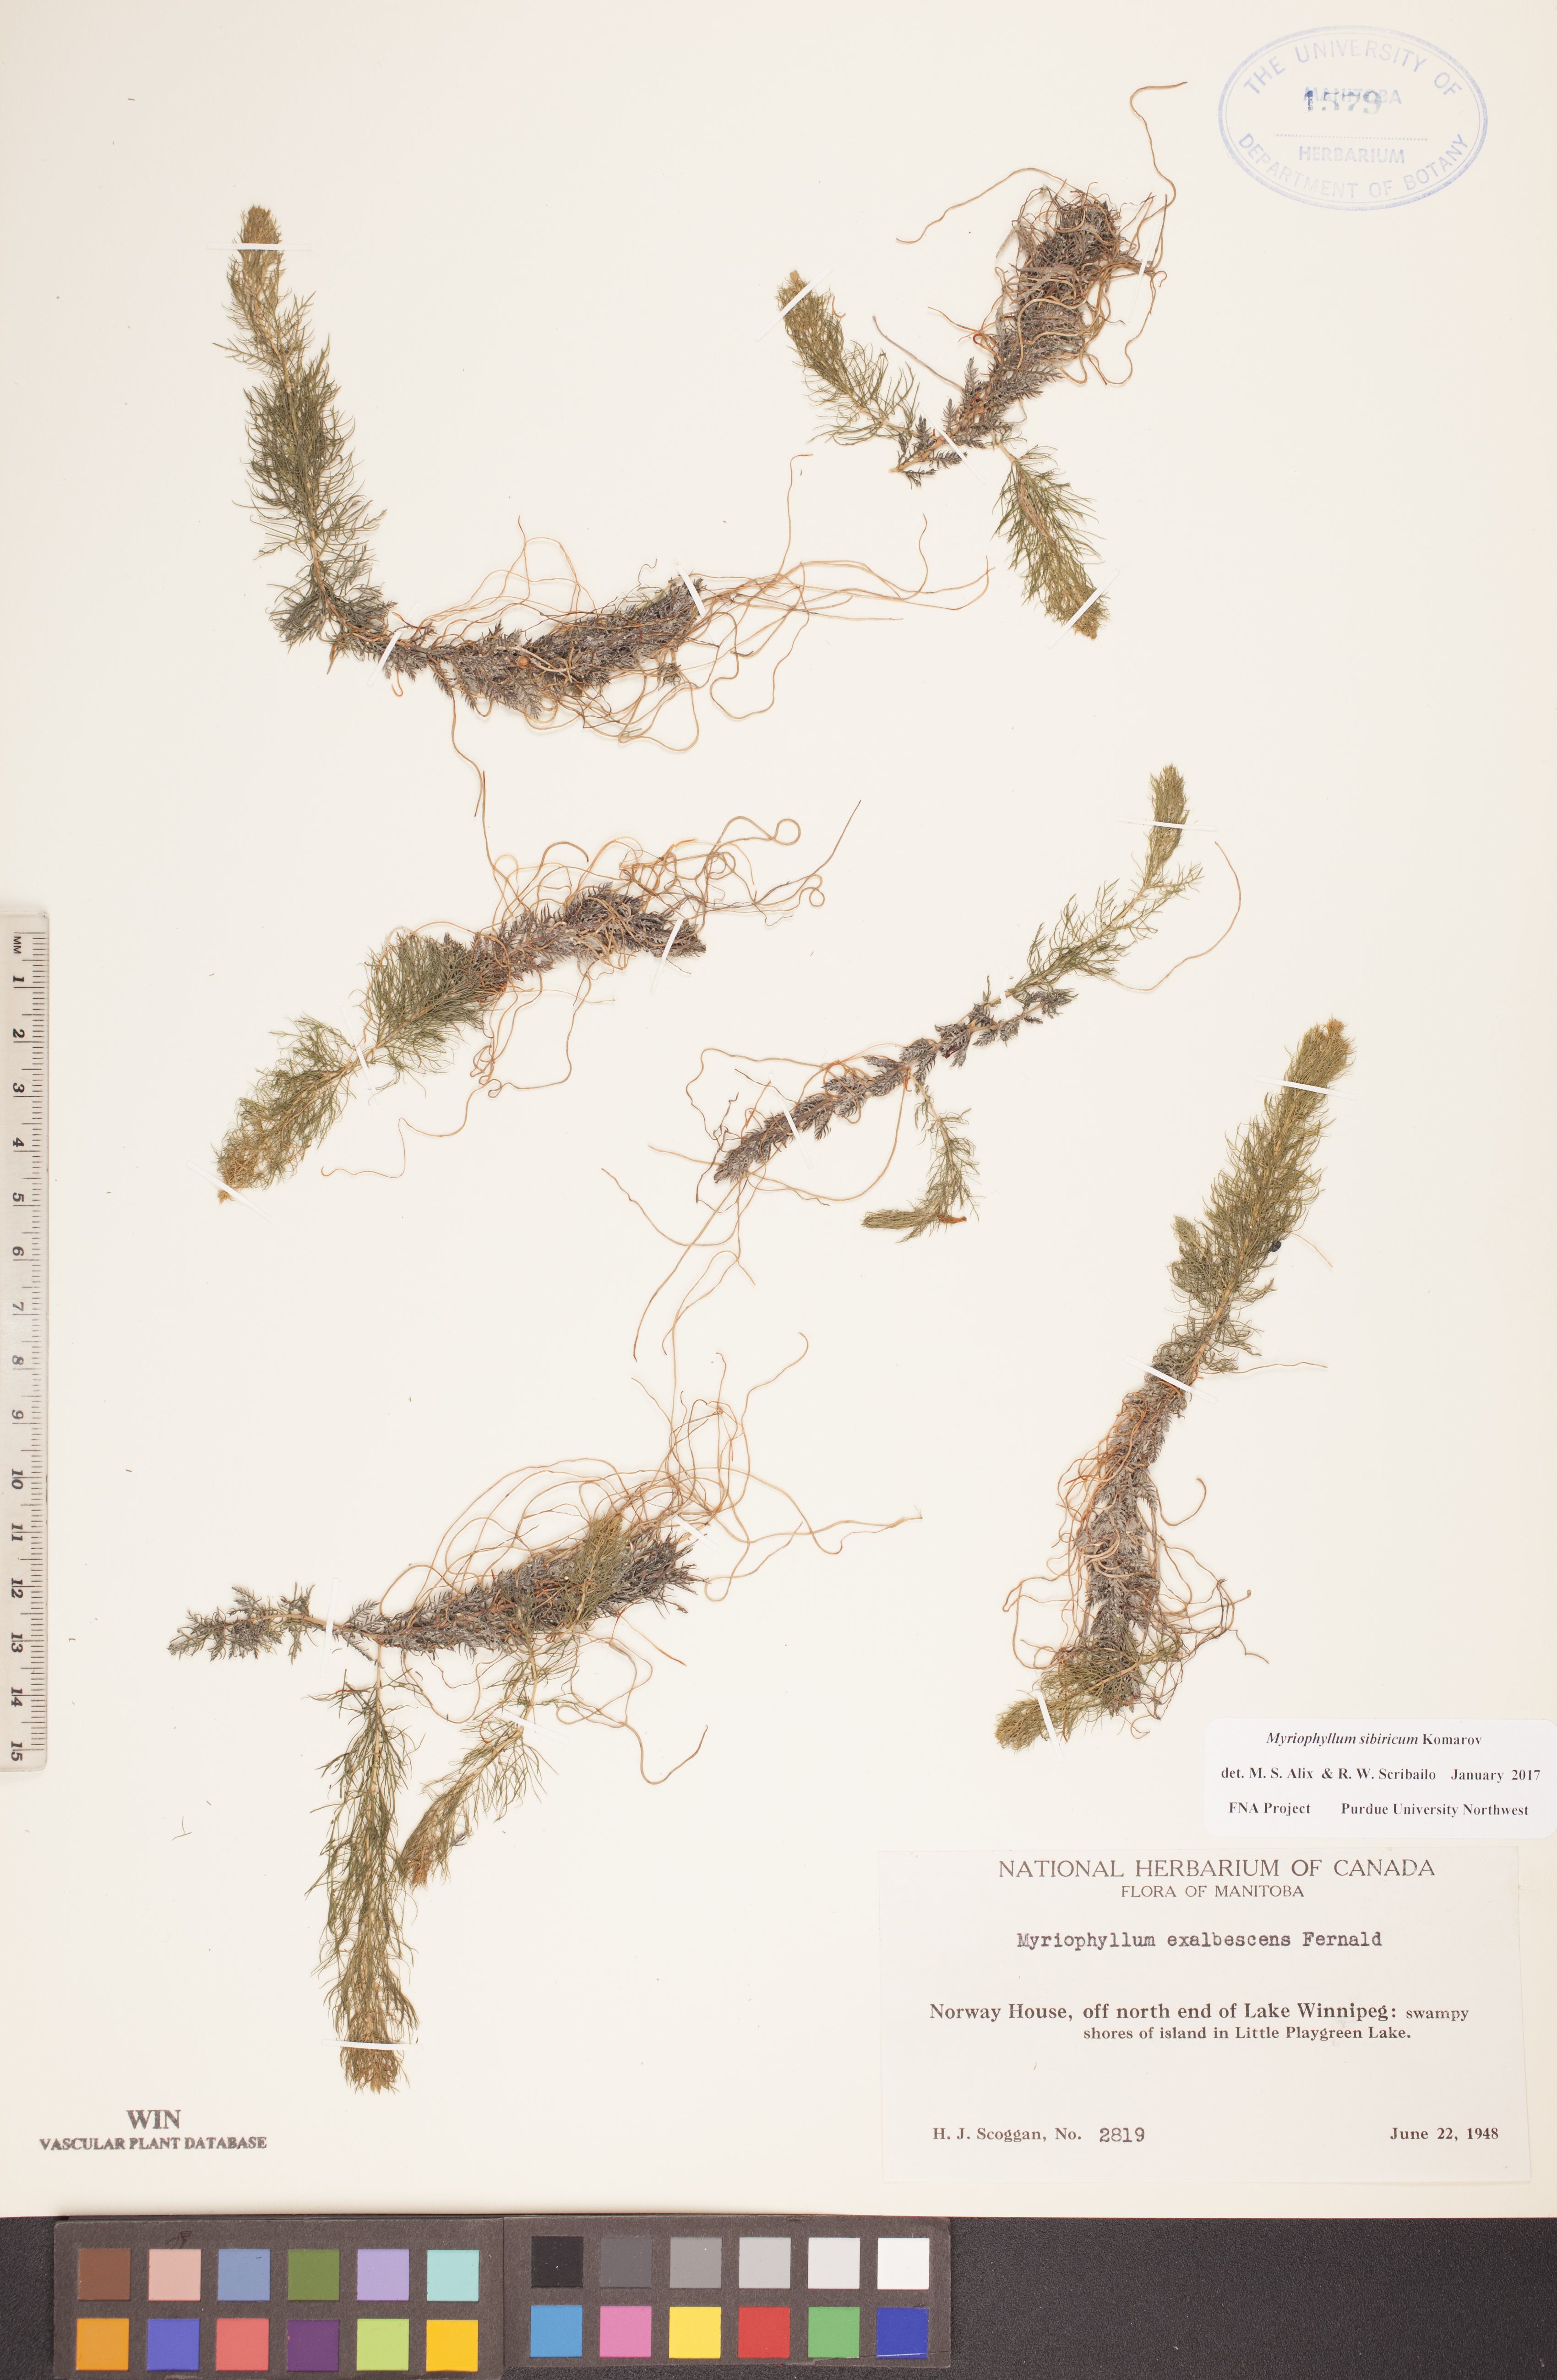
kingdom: Plantae
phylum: Tracheophyta
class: Magnoliopsida
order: Saxifragales
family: Haloragaceae
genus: Myriophyllum
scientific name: Myriophyllum sibiricum
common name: Siberian water-milfoil
